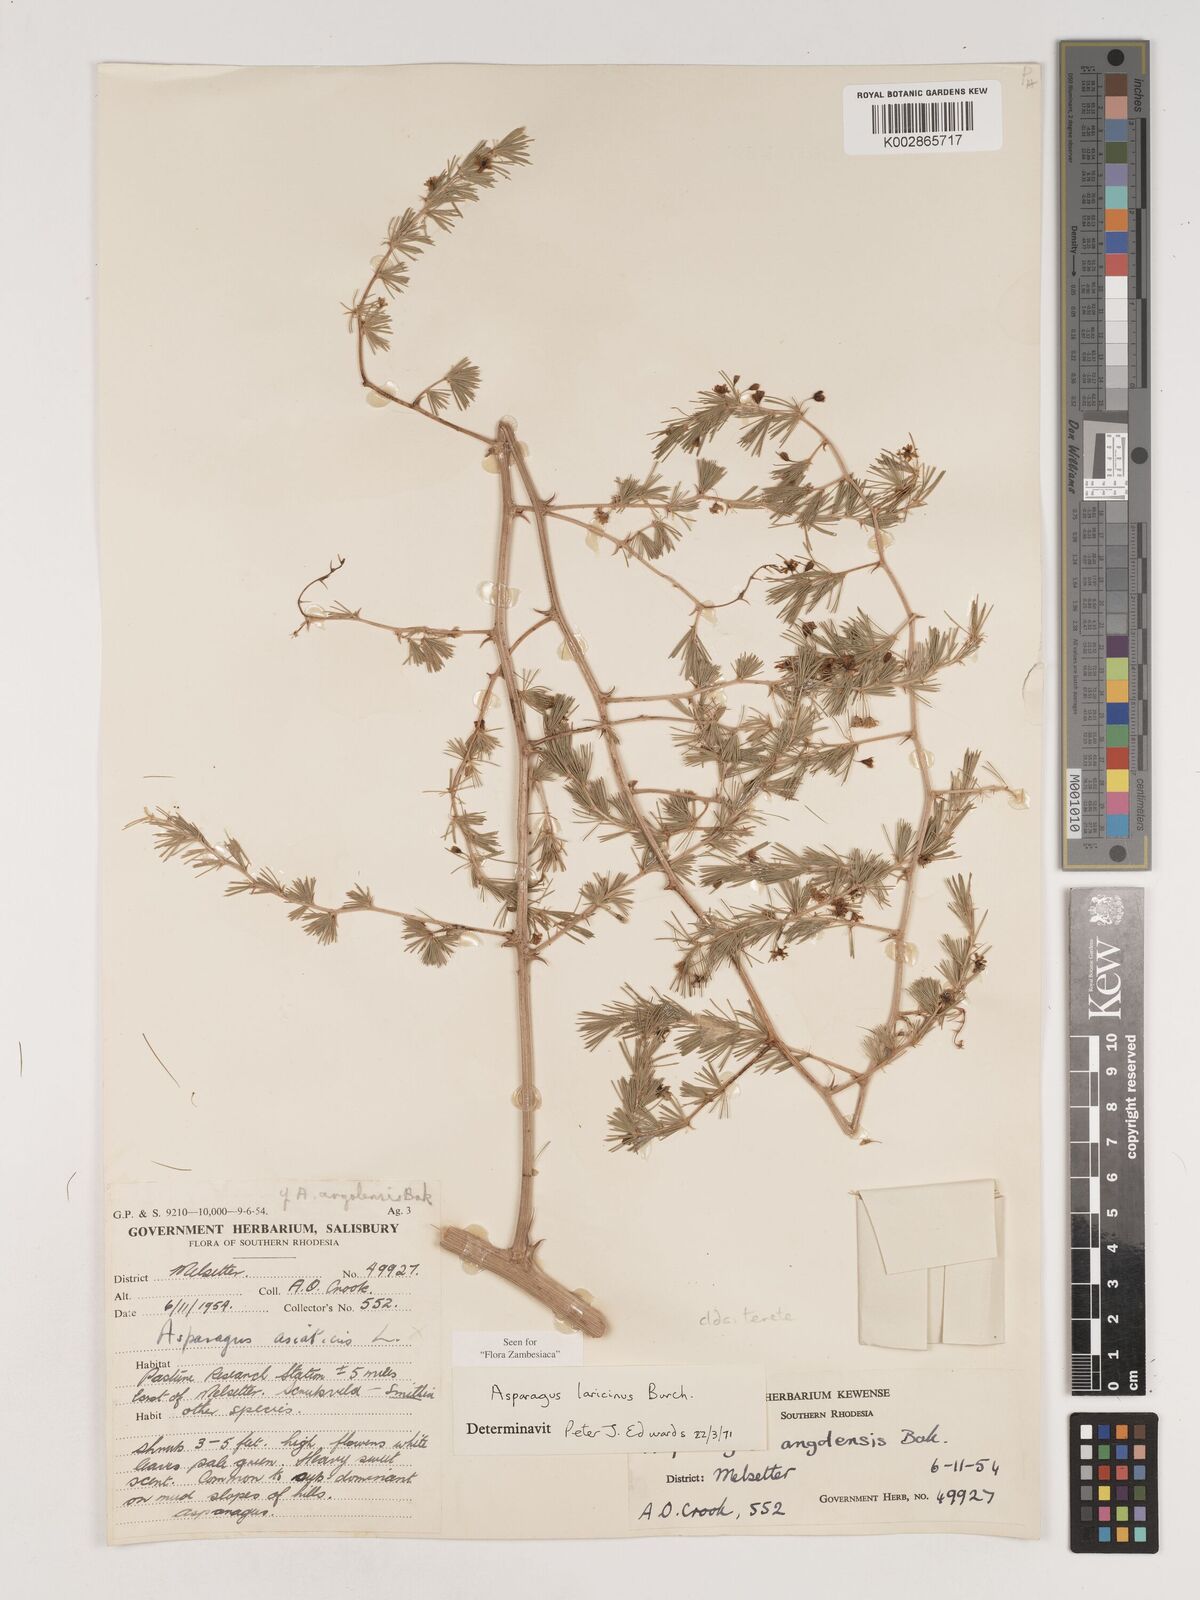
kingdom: Plantae
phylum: Tracheophyta
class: Liliopsida
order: Asparagales
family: Asparagaceae
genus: Asparagus
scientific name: Asparagus laricinus
